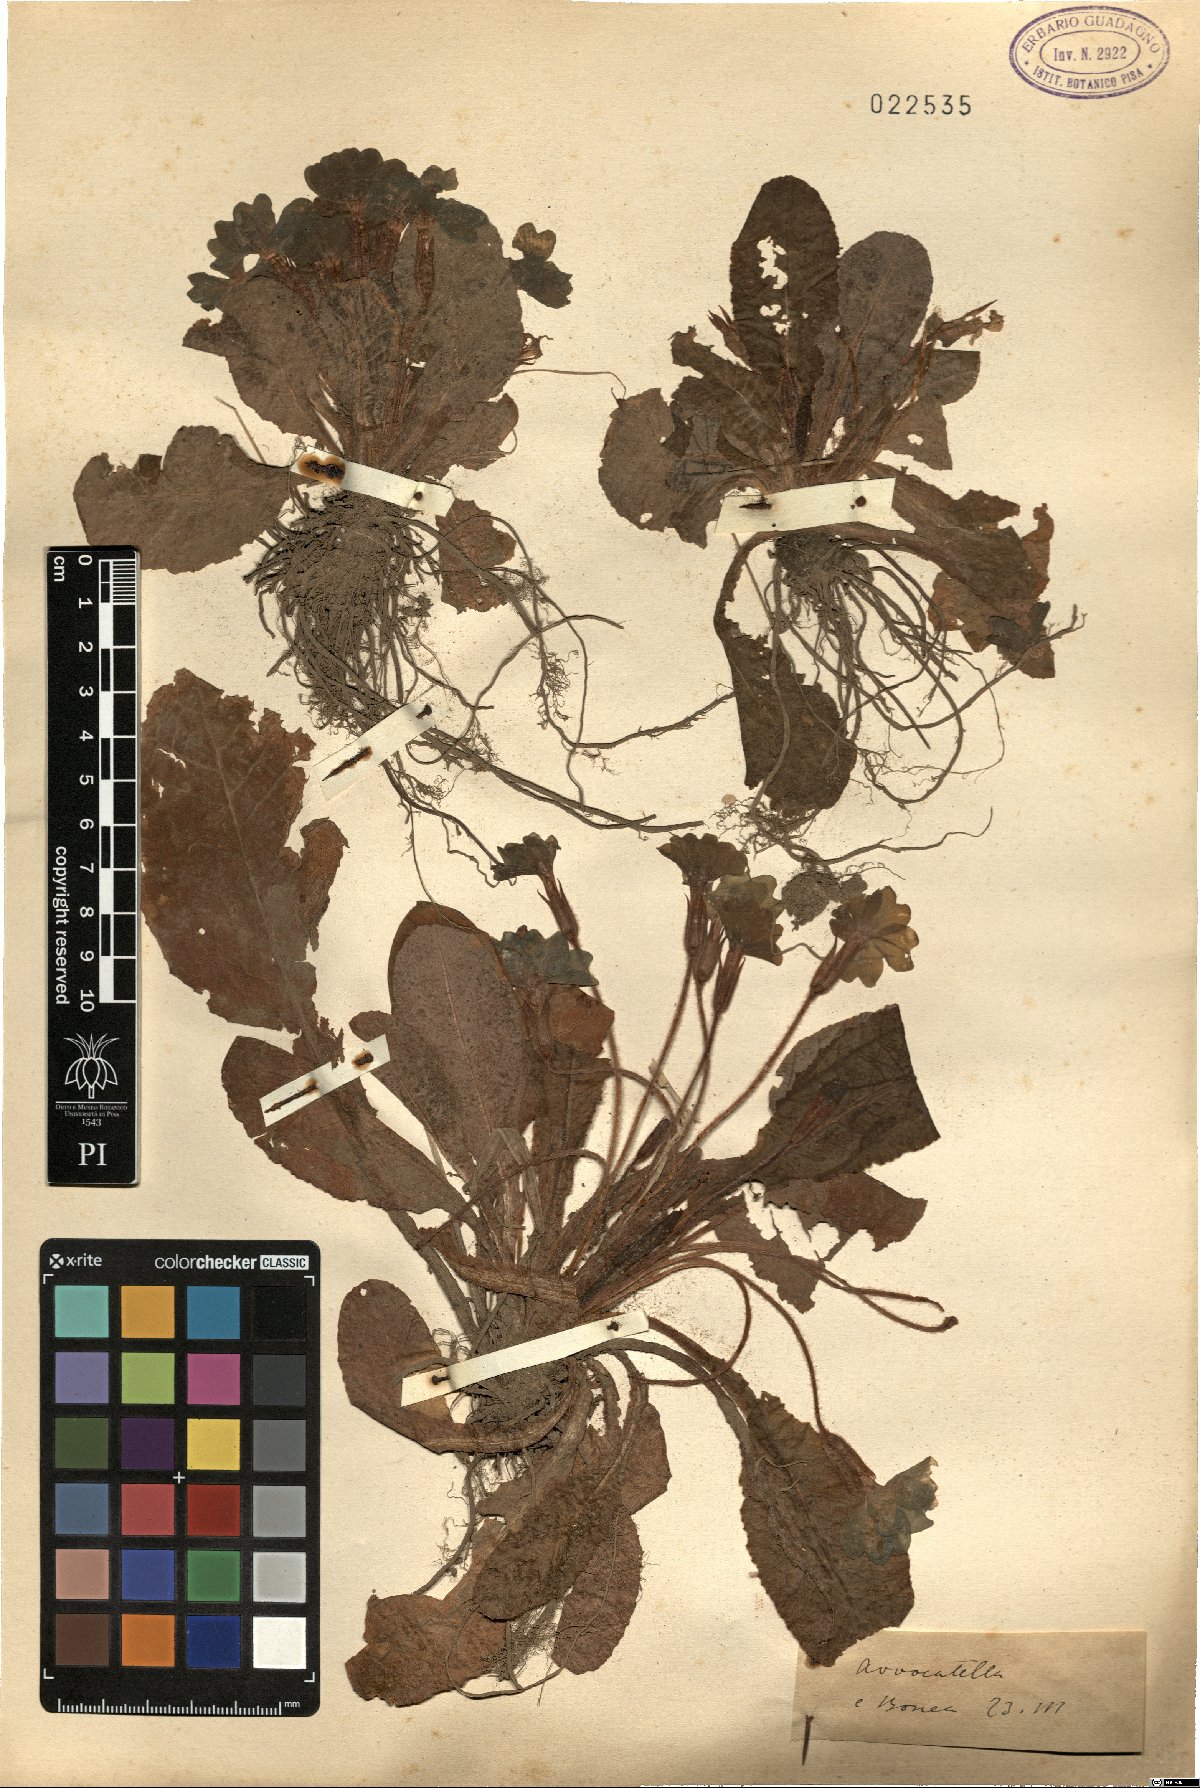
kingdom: Plantae
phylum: Tracheophyta
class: Magnoliopsida
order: Ericales
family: Primulaceae
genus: Primula
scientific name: Primula
